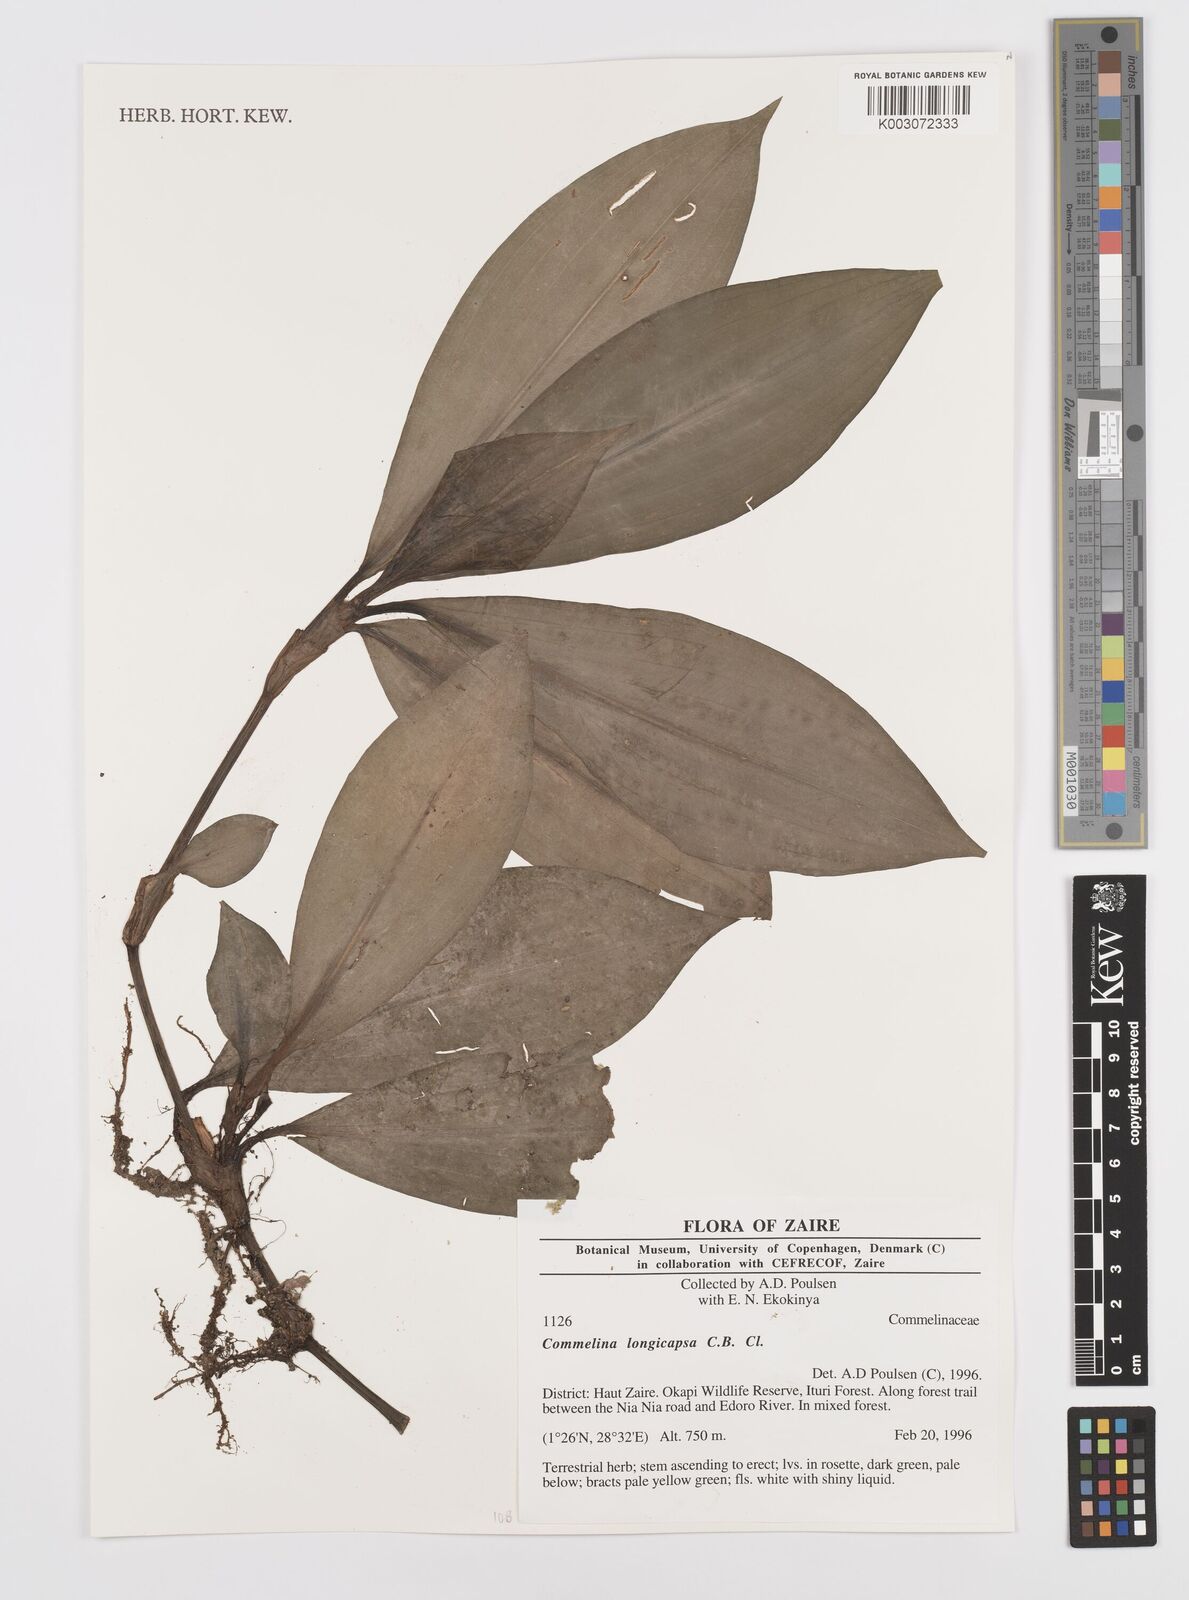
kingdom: Plantae
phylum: Tracheophyta
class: Liliopsida
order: Commelinales
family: Commelinaceae
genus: Commelina
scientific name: Commelina longicapsa
